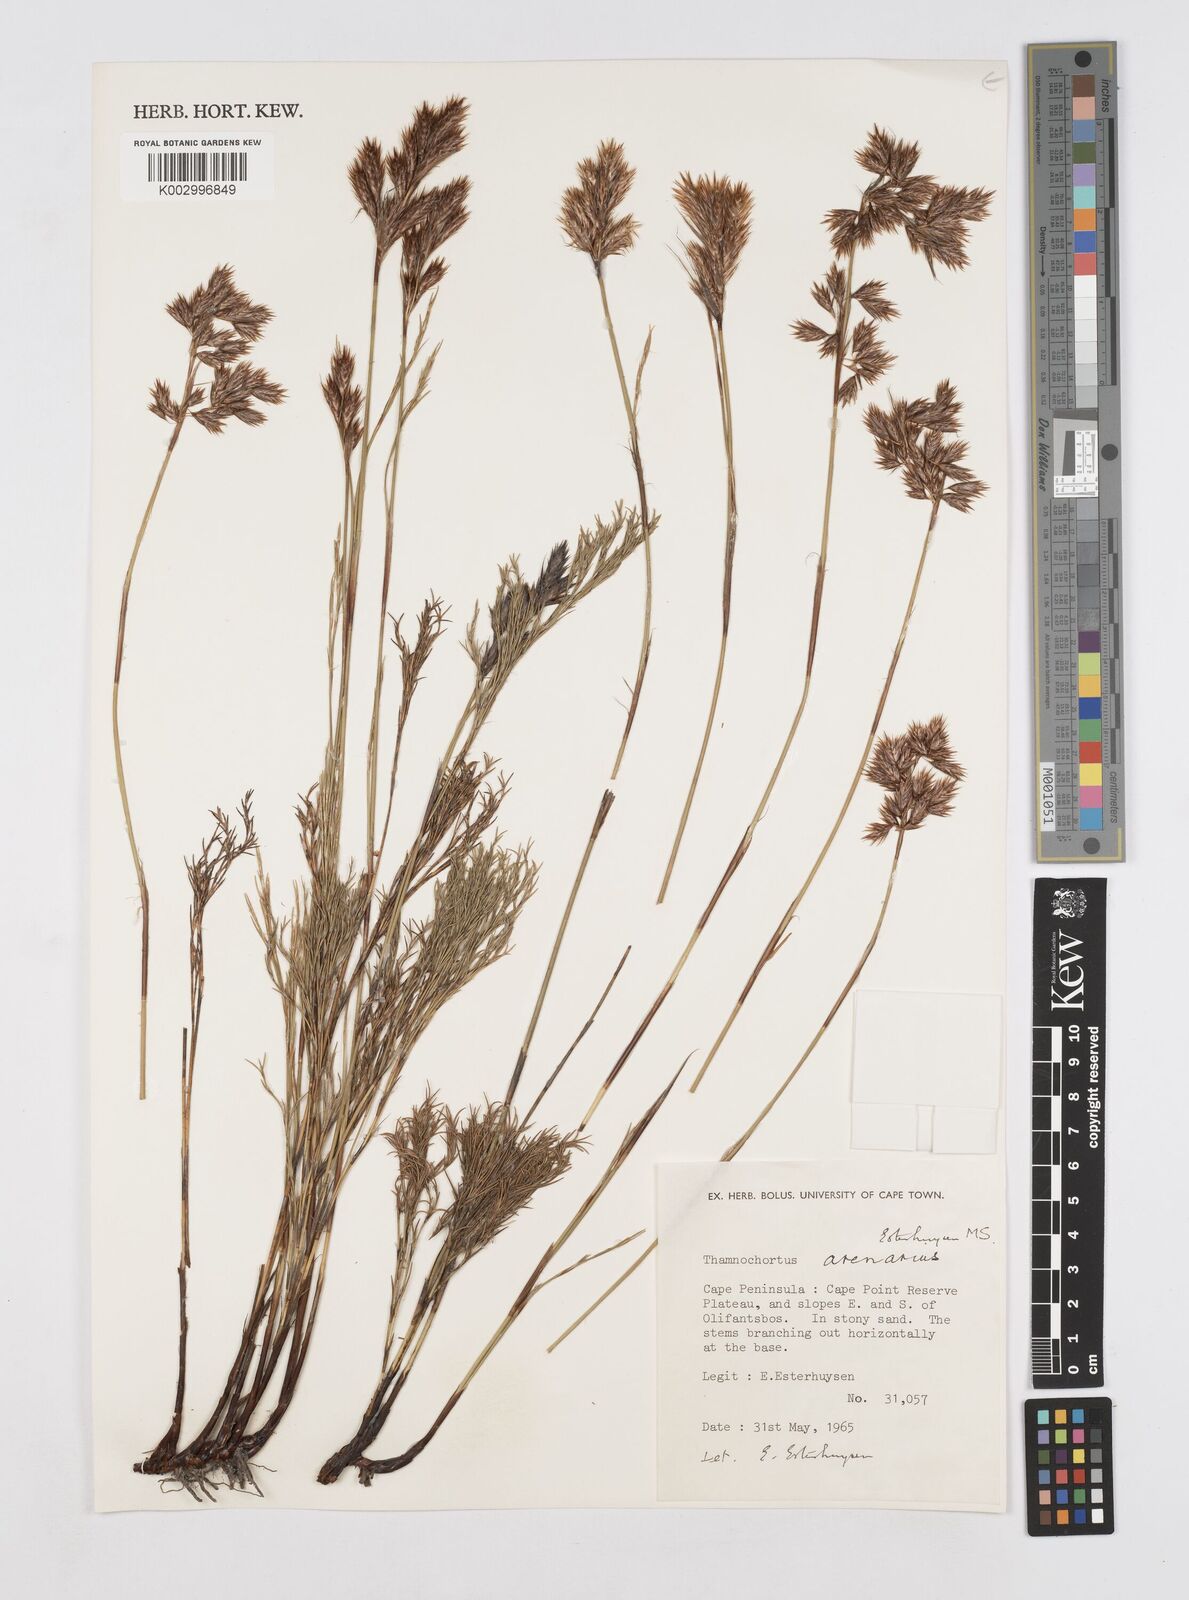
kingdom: Plantae
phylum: Tracheophyta
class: Liliopsida
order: Poales
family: Restionaceae
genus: Thamnochortus
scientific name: Thamnochortus arenarius
